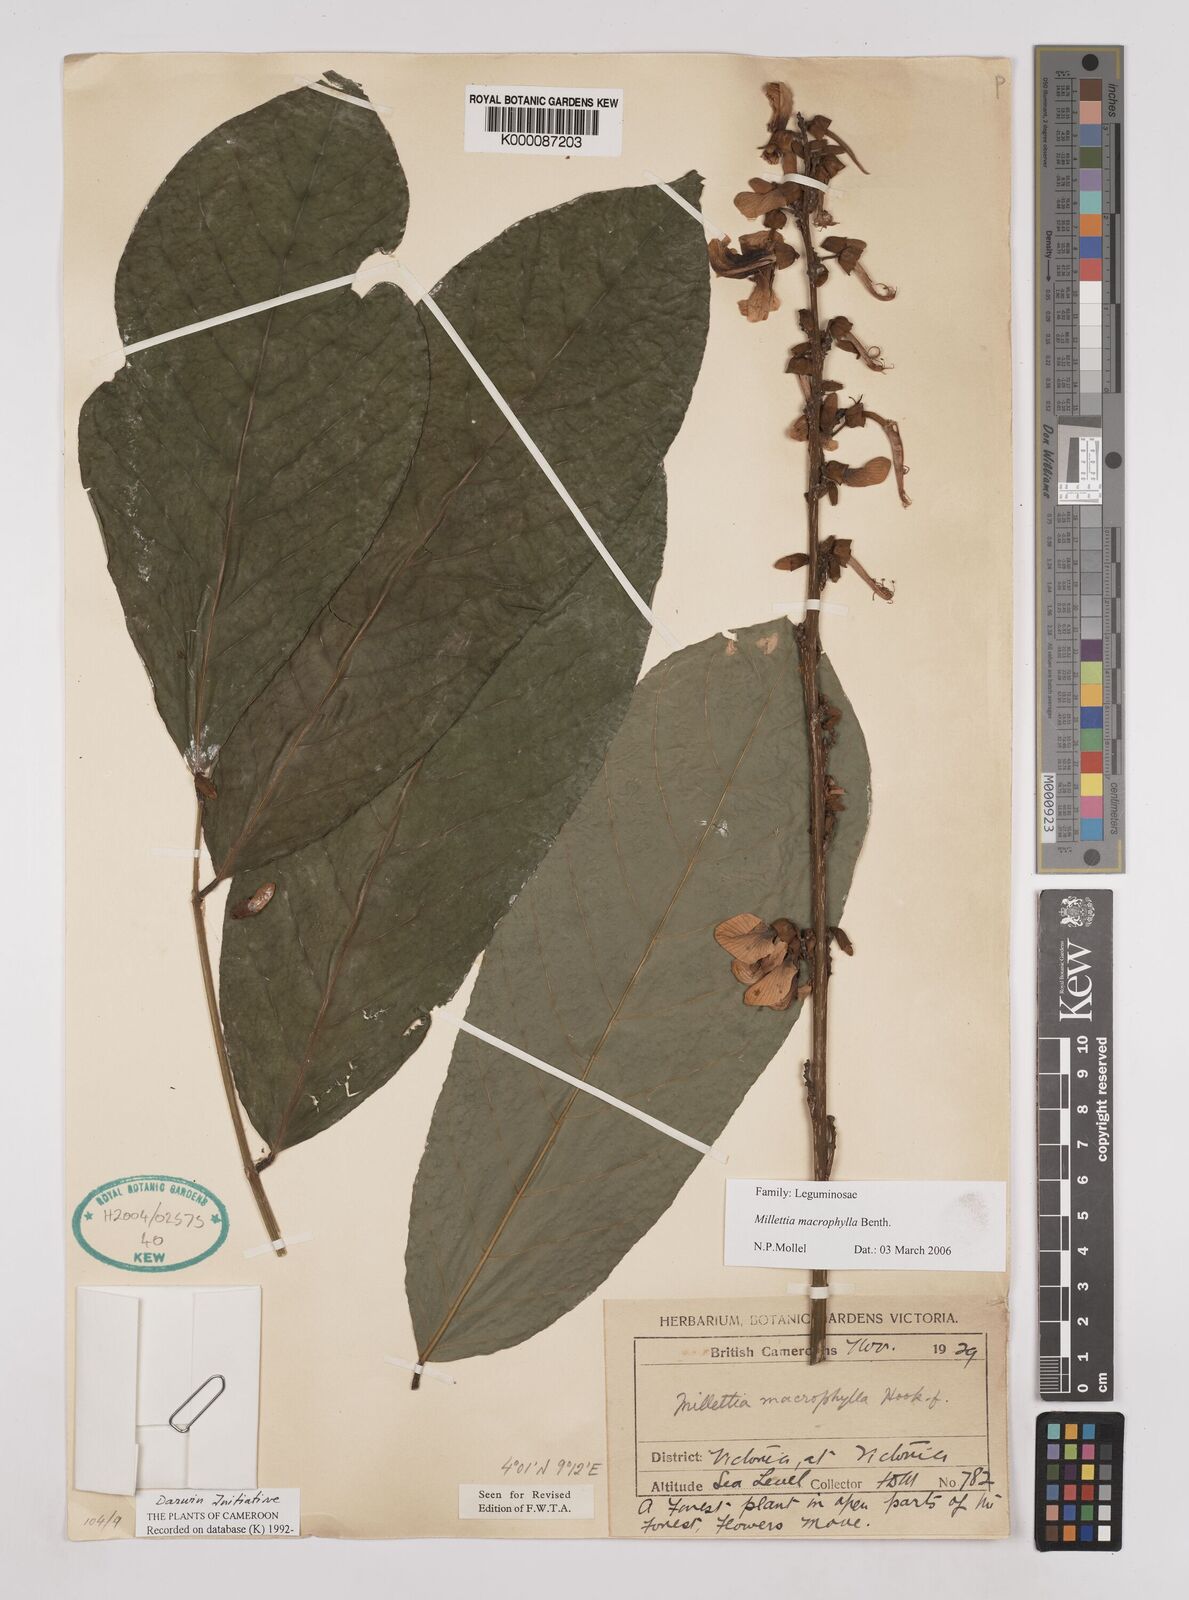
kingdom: Plantae
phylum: Tracheophyta
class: Magnoliopsida
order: Fabales
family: Fabaceae
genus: Millettia
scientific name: Millettia macrophylla
